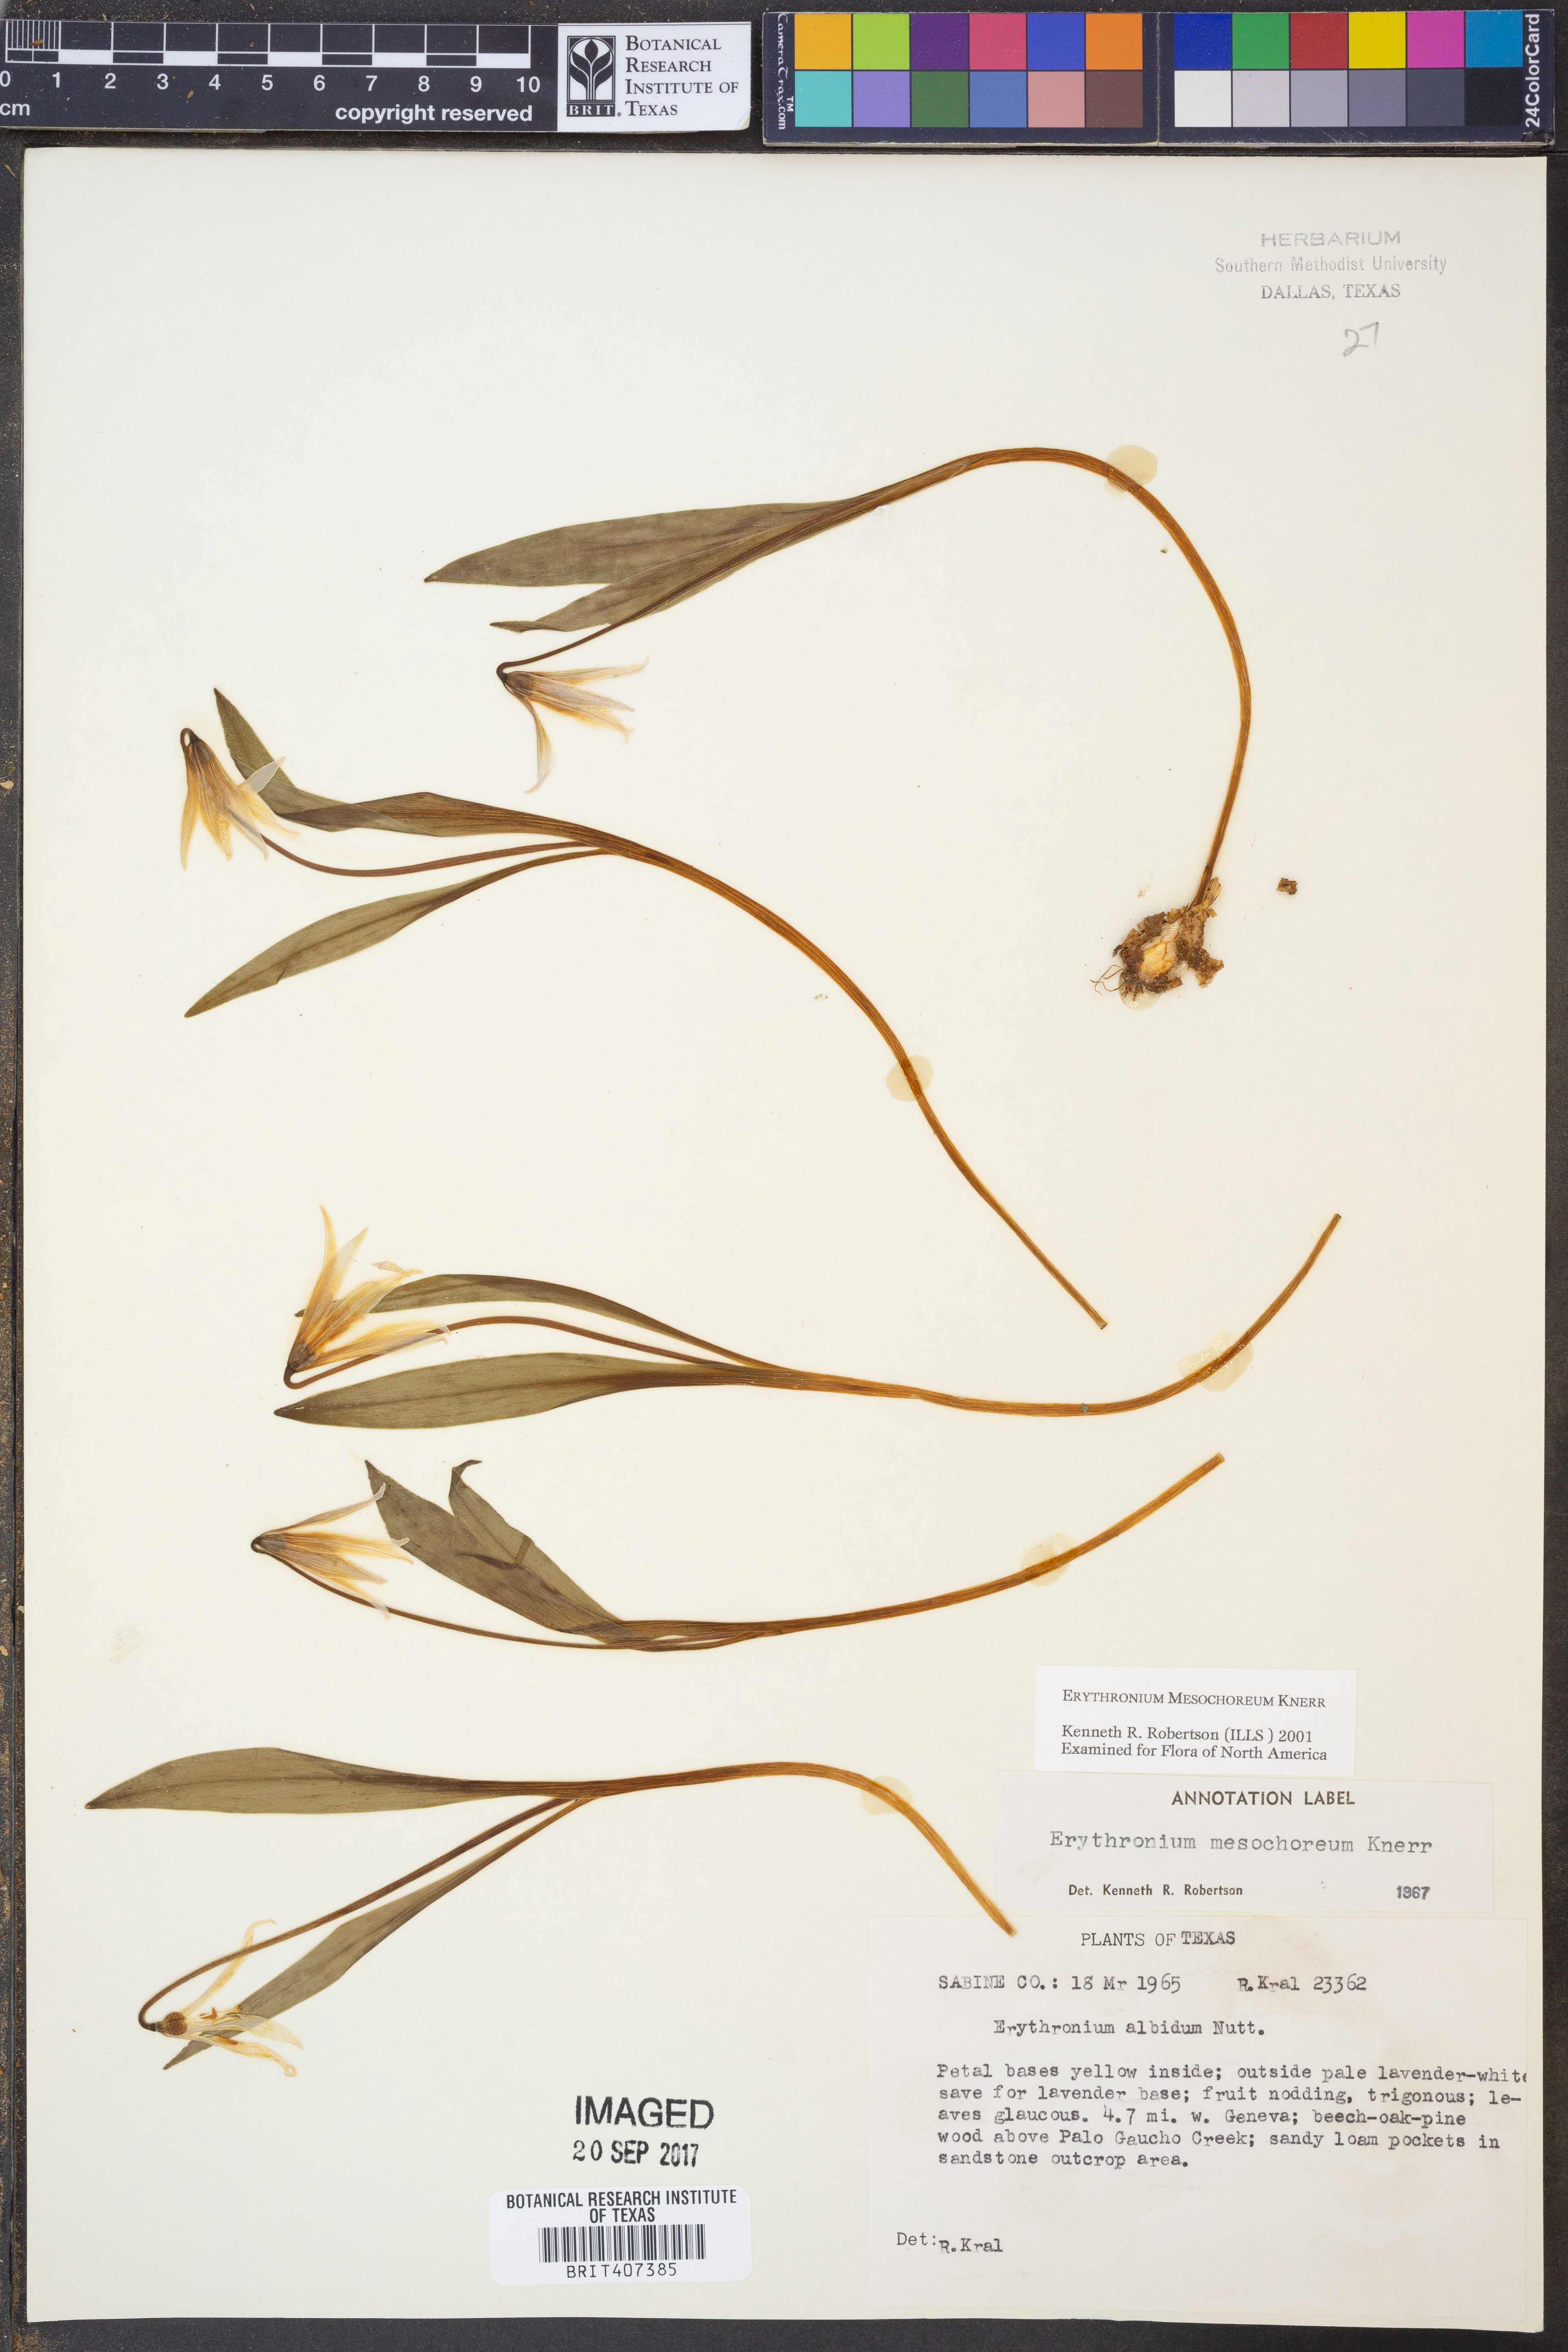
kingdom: Plantae
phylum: Tracheophyta
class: Liliopsida
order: Liliales
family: Liliaceae
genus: Erythronium
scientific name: Erythronium mesochoreum
